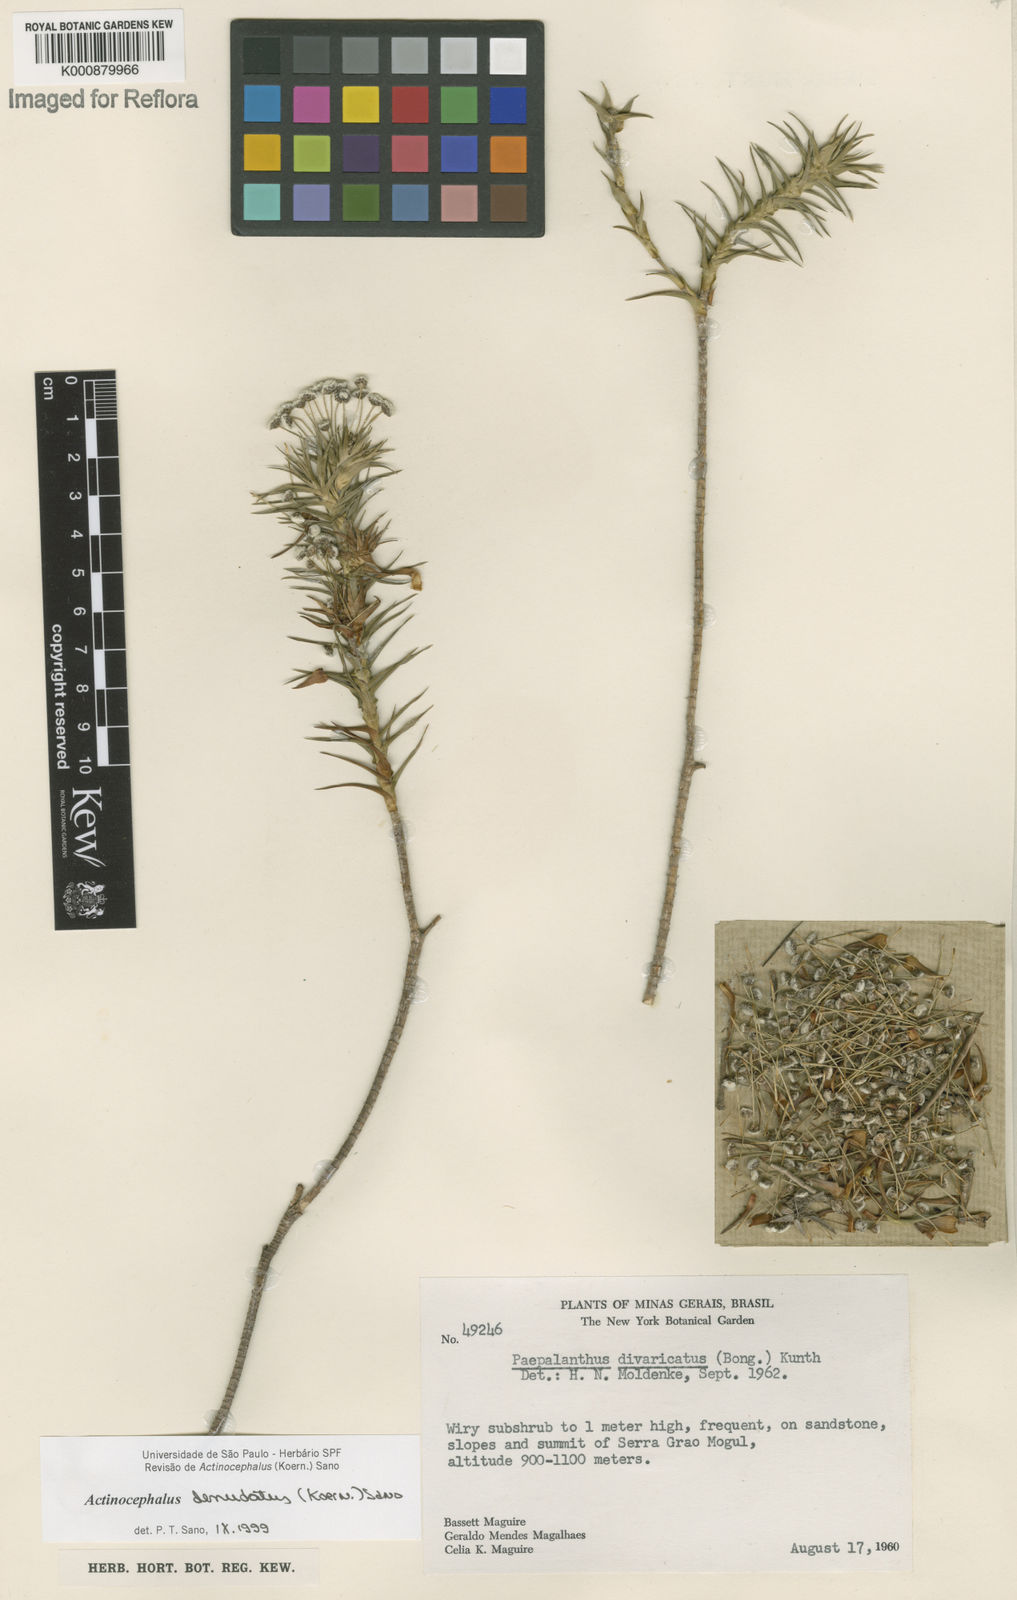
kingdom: Plantae
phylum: Tracheophyta
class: Liliopsida
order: Poales
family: Eriocaulaceae
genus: Paepalanthus
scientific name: Paepalanthus
